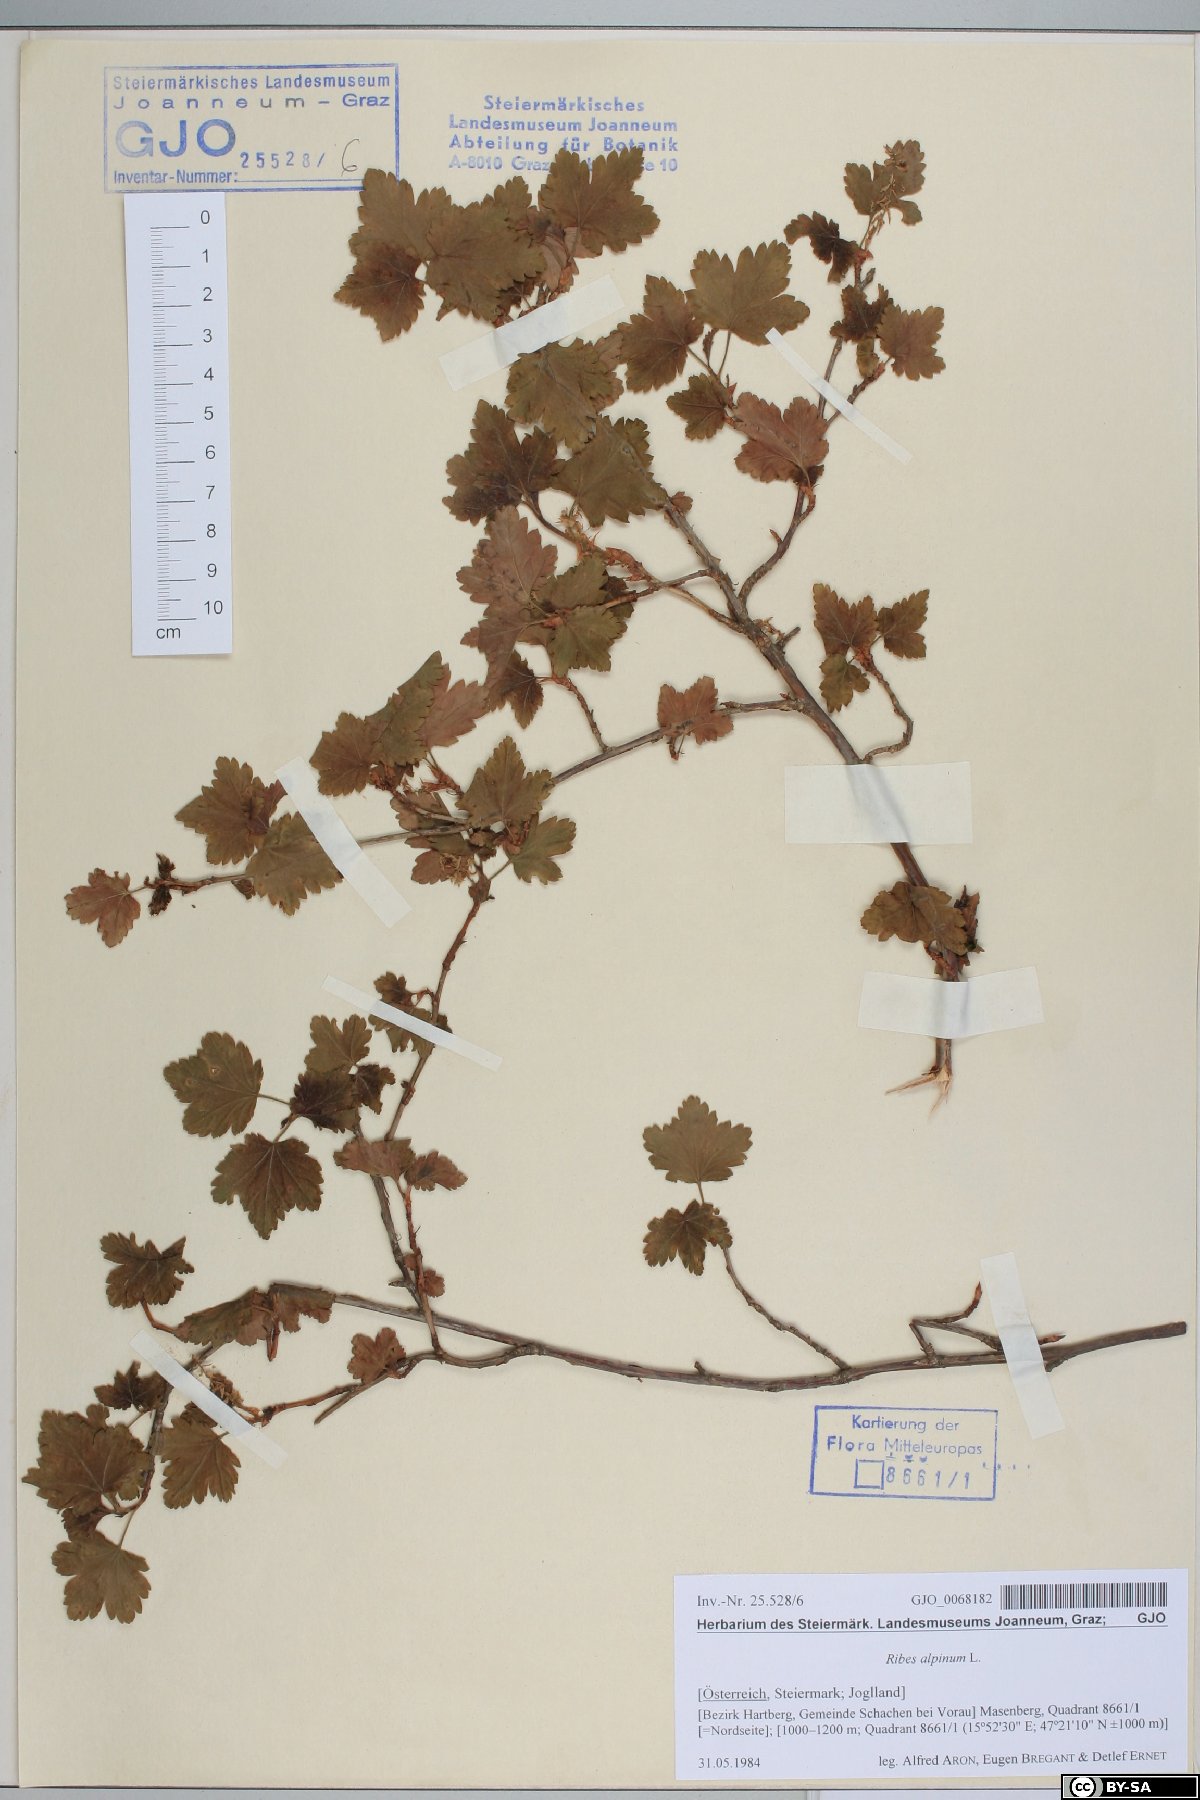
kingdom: Plantae
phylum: Tracheophyta
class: Magnoliopsida
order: Saxifragales
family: Grossulariaceae
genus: Ribes
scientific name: Ribes alpinum
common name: Alpine currant
